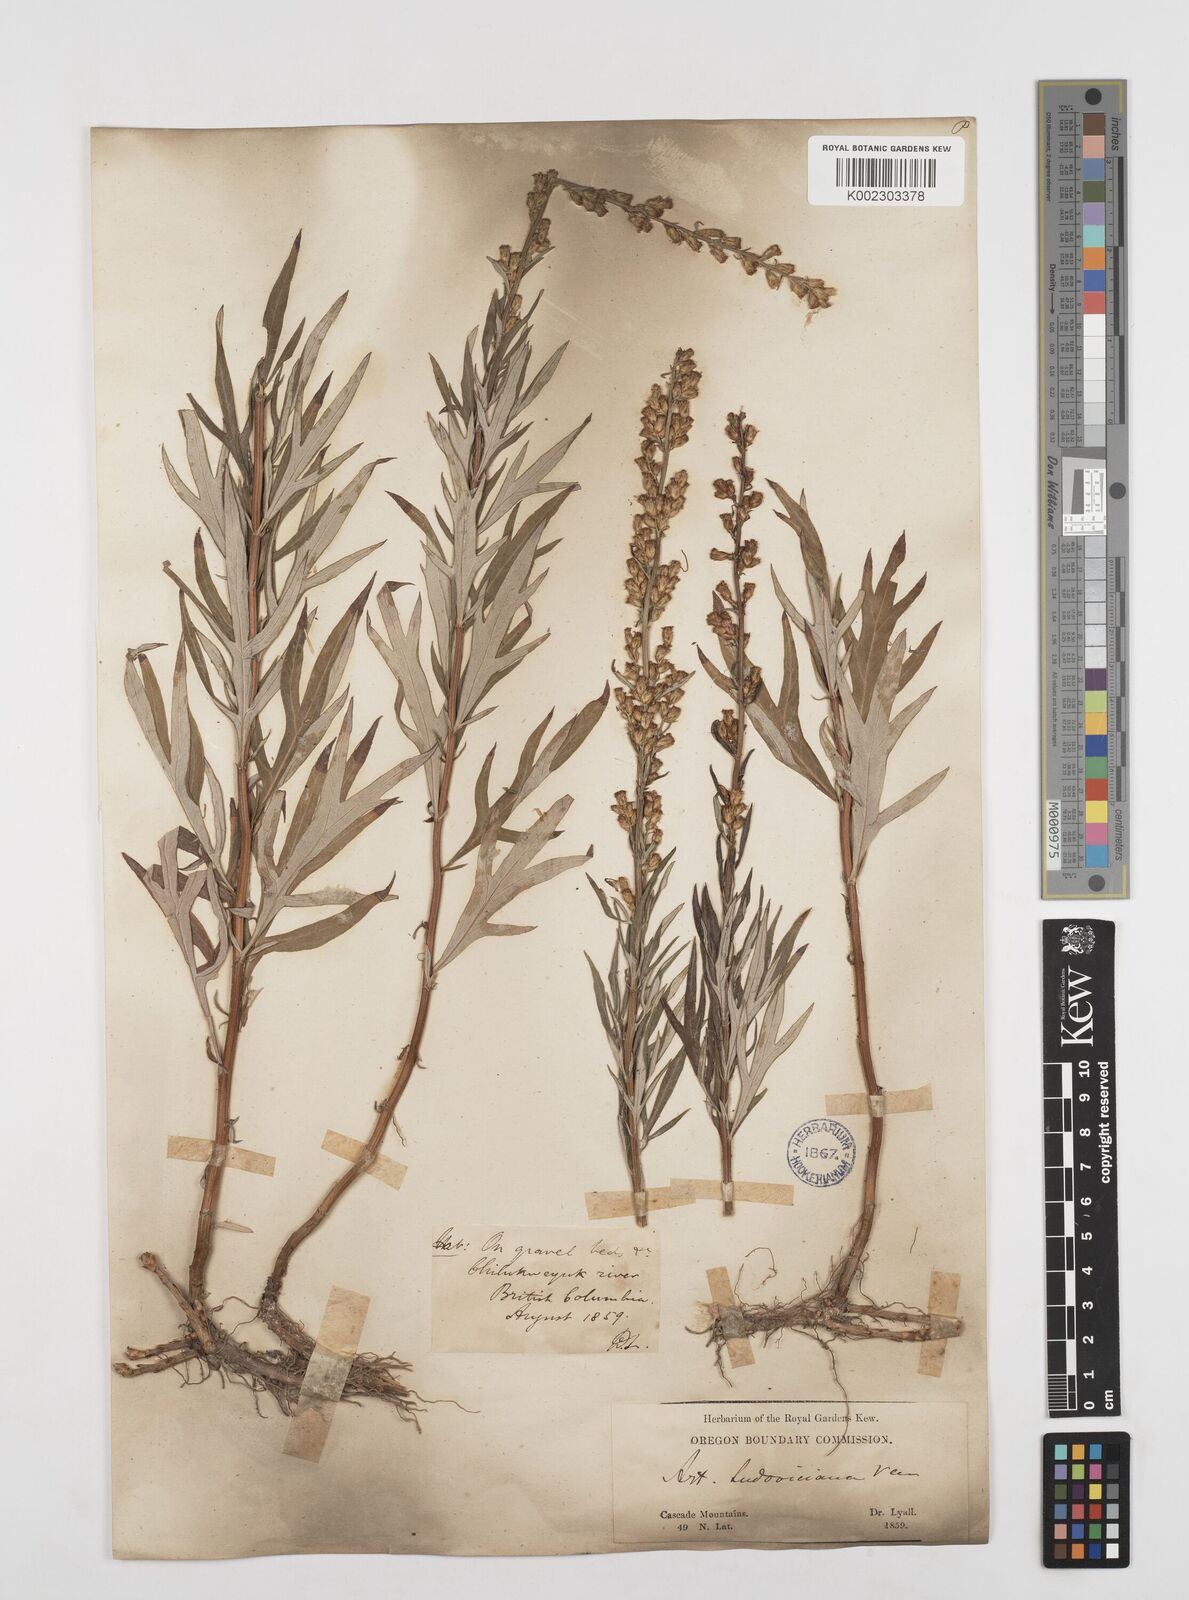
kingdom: Plantae
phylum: Tracheophyta
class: Magnoliopsida
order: Asterales
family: Asteraceae
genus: Artemisia
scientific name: Artemisia
